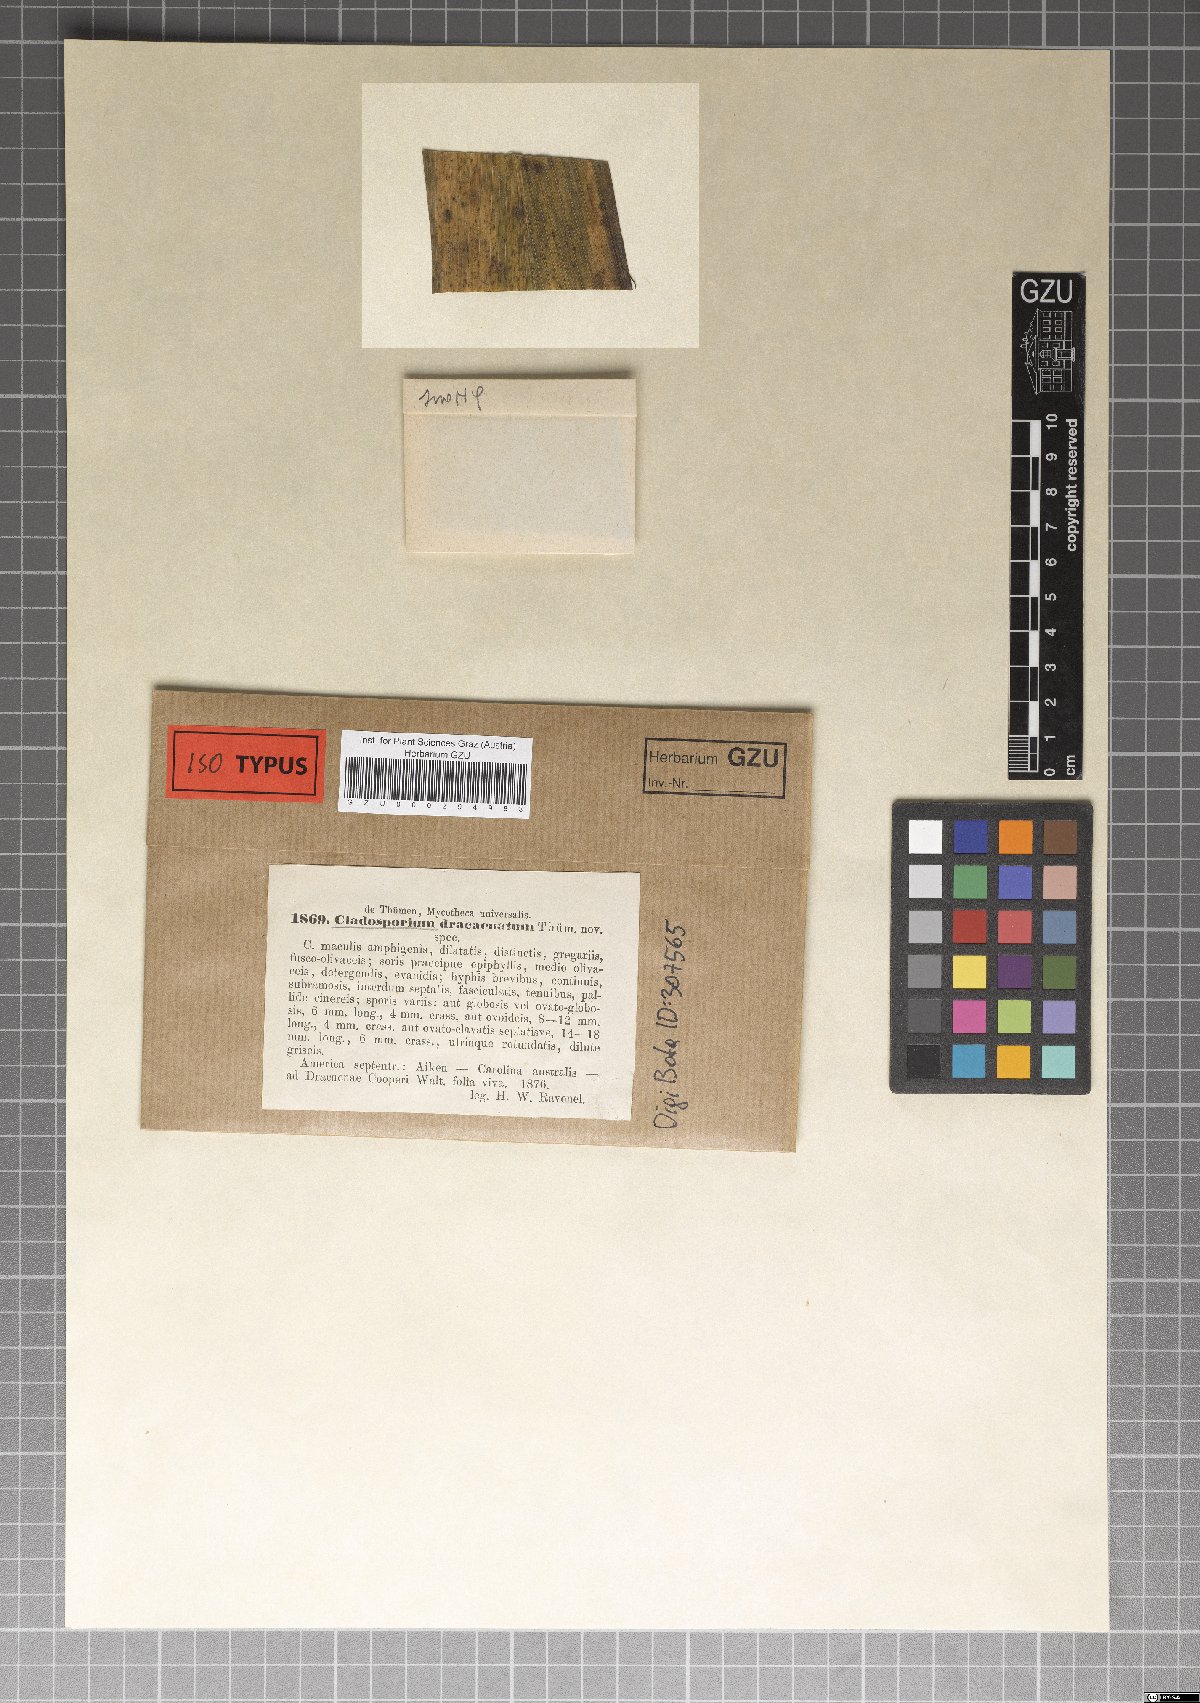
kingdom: Fungi
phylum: Ascomycota
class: Dothideomycetes
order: Capnodiales
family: Cladosporiaceae
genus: Cladosporium
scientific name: Cladosporium dracaenatum
